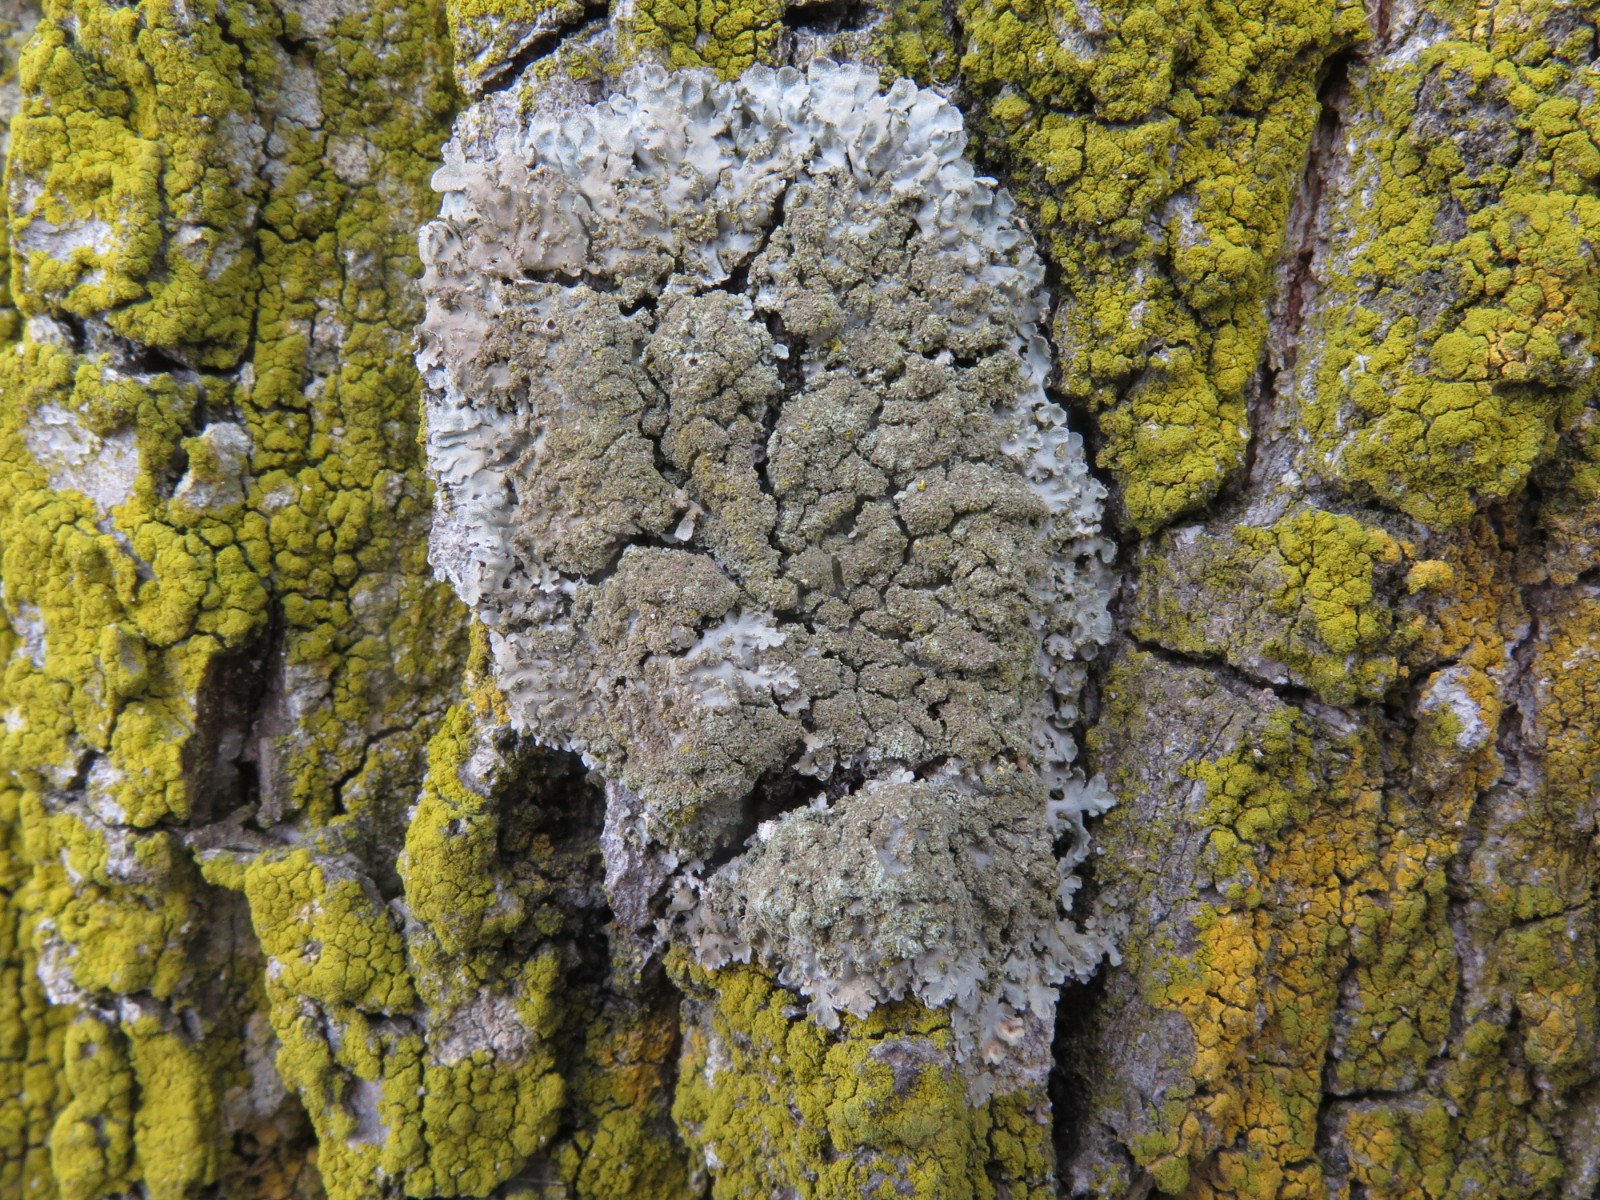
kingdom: Fungi
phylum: Ascomycota
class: Lecanoromycetes
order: Caliciales
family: Physciaceae
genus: Physconia
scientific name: Physconia enteroxantha
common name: grynet dugrosetlav
